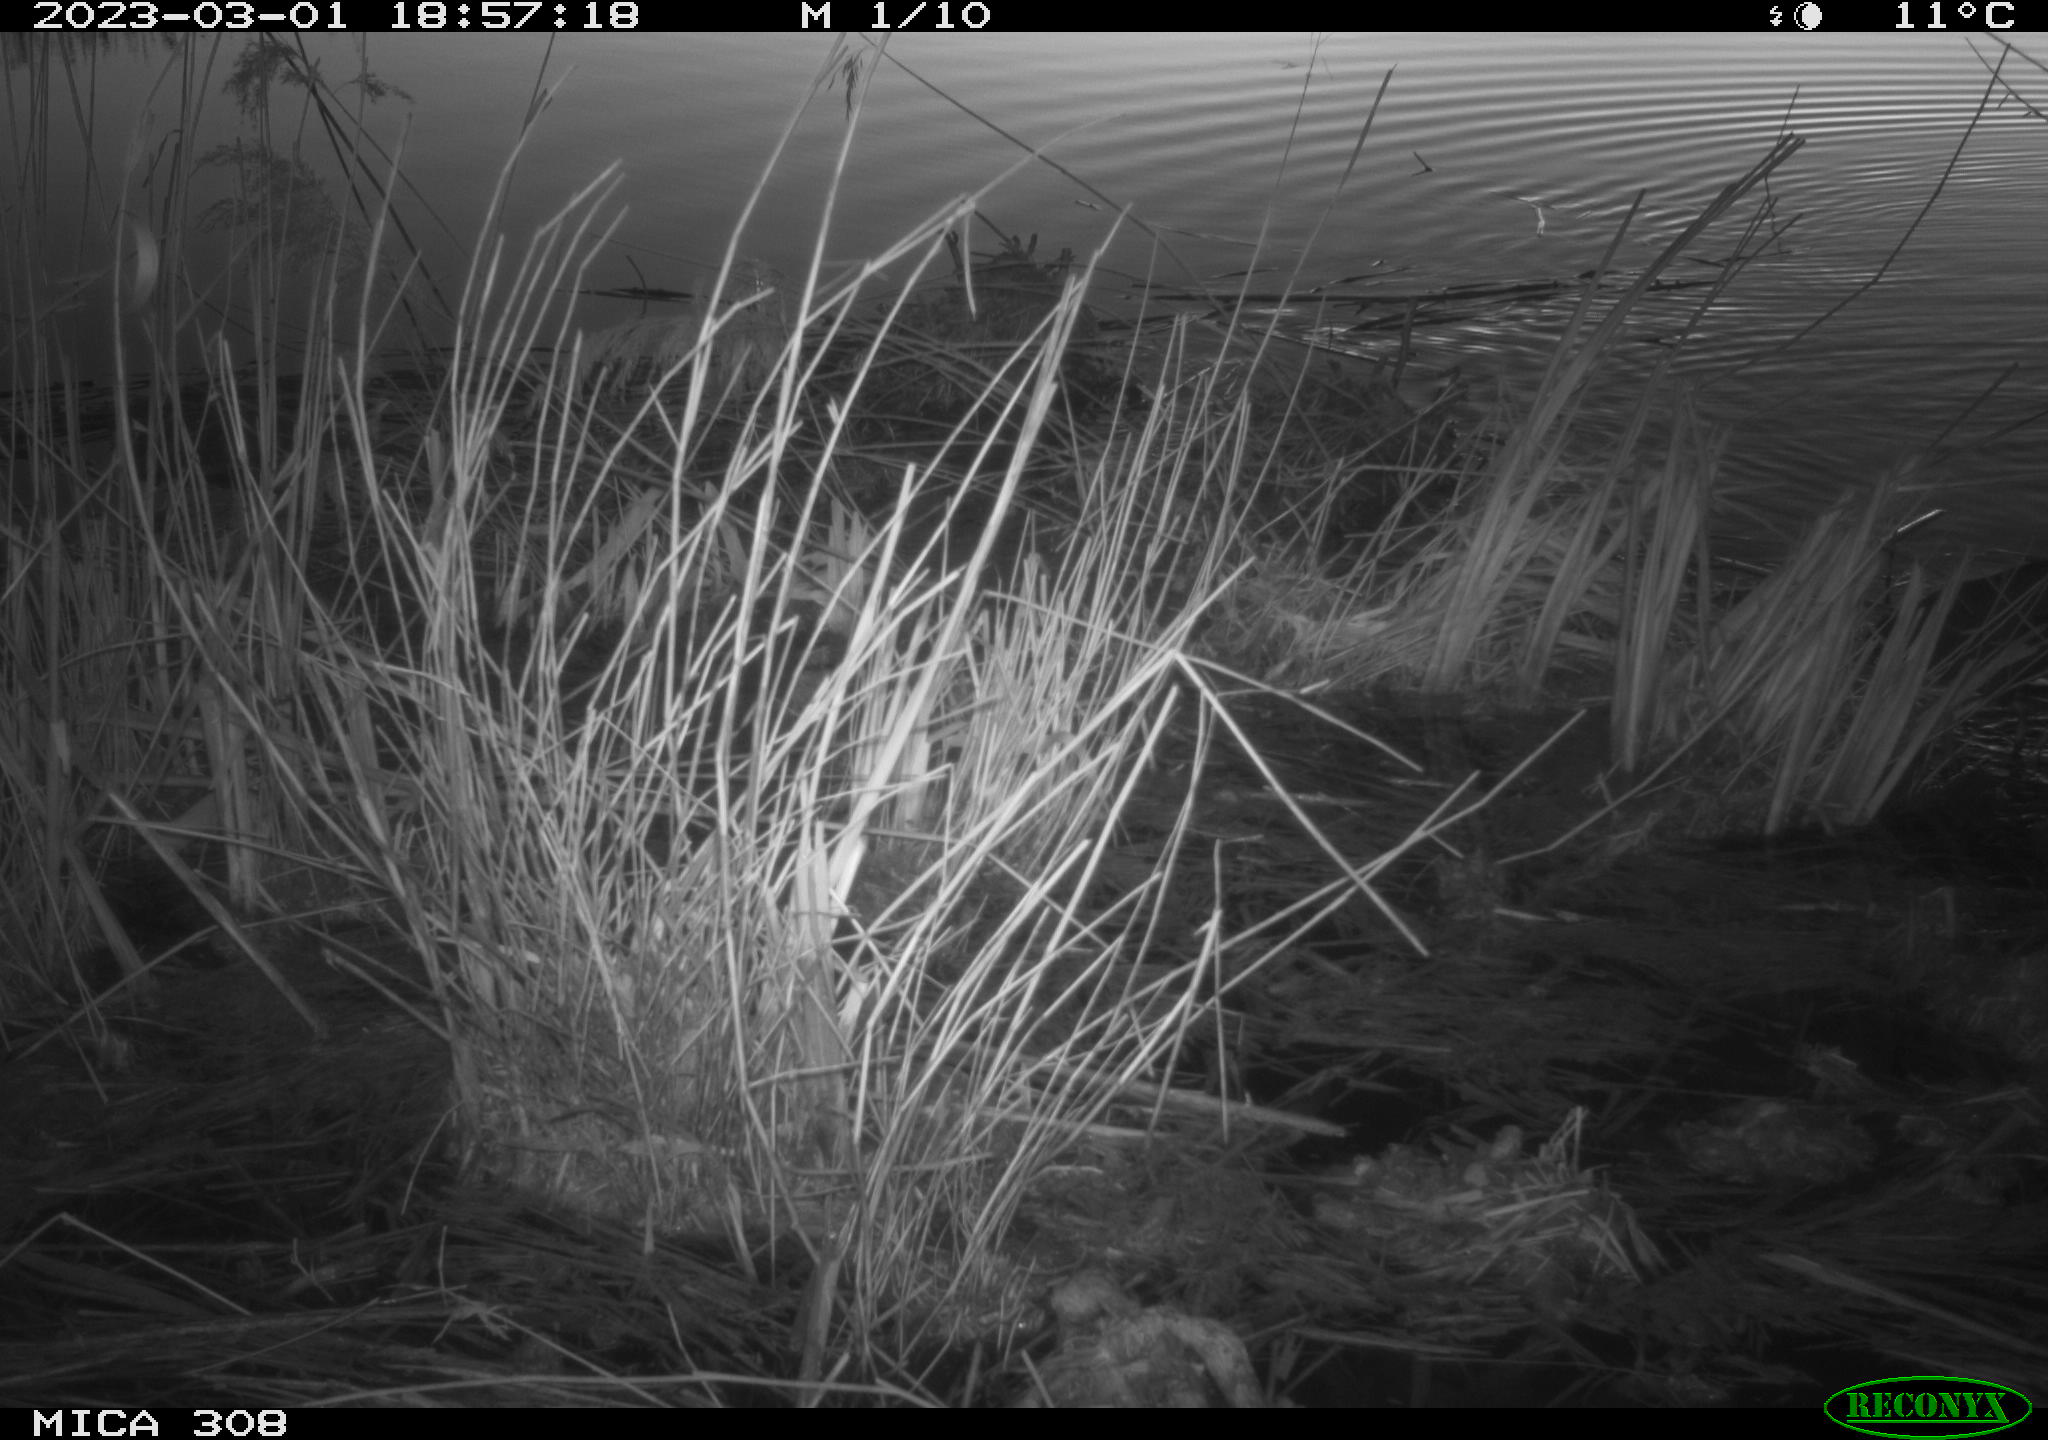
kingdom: Animalia
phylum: Chordata
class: Aves
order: Gruiformes
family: Rallidae
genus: Gallinula
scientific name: Gallinula chloropus
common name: Common moorhen
